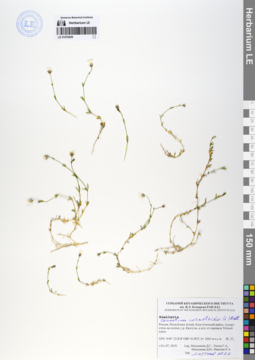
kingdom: Plantae
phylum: Tracheophyta
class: Magnoliopsida
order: Caryophyllales
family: Caryophyllaceae
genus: Dichodon
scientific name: Dichodon cerastoides
